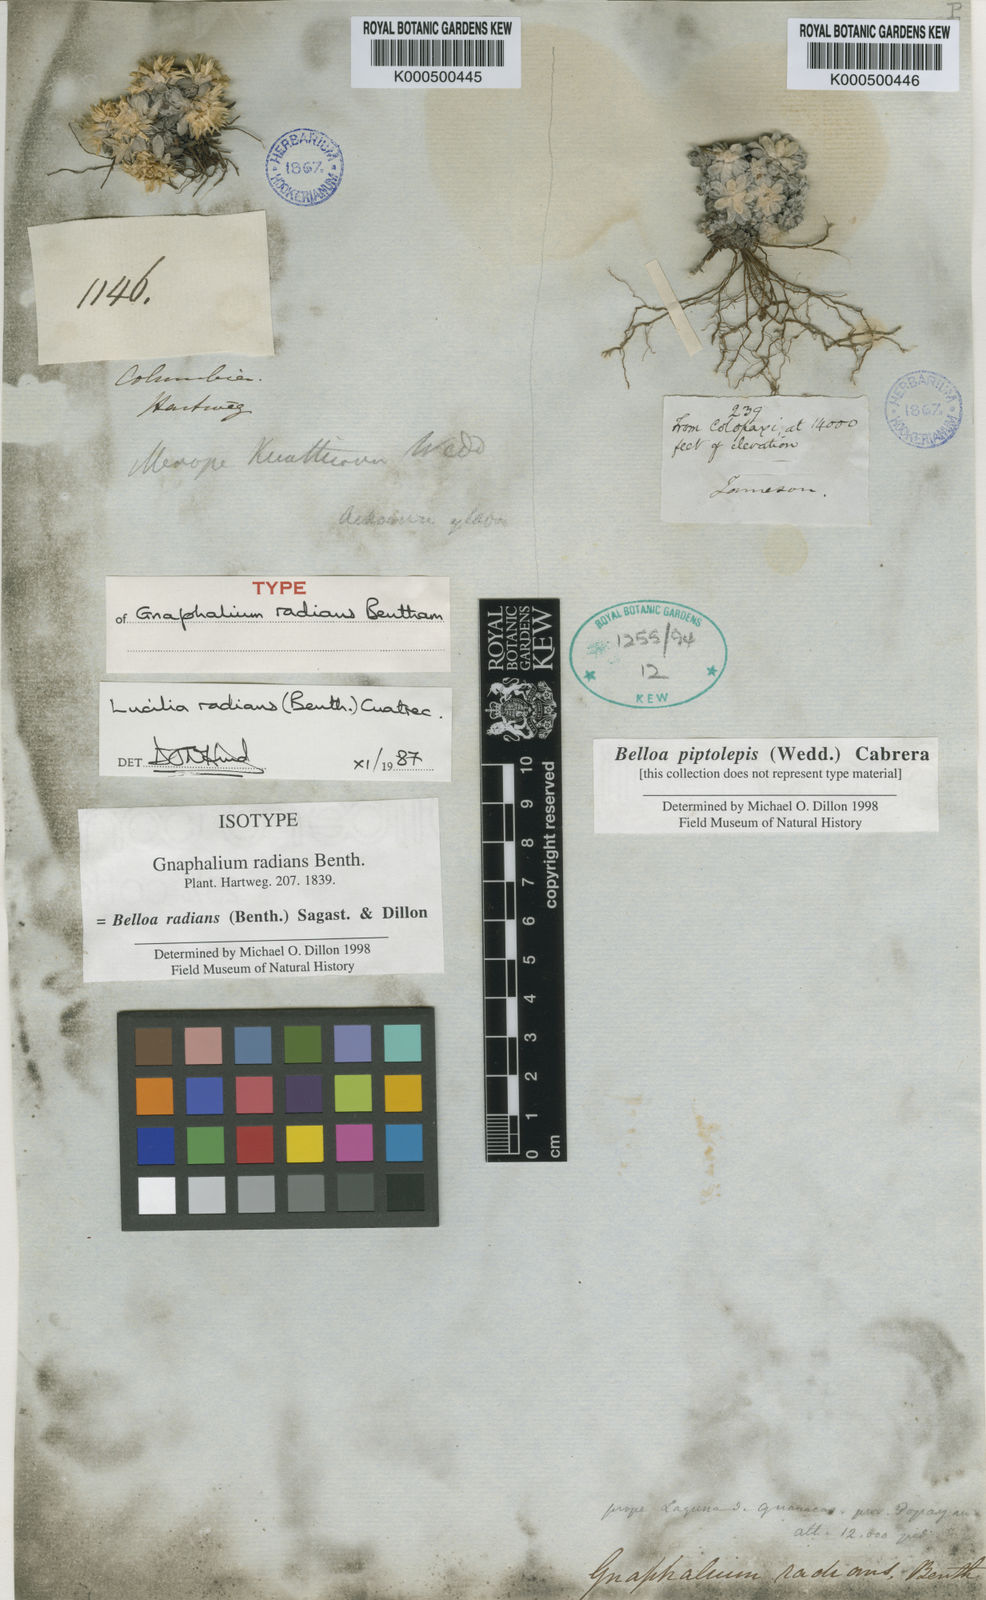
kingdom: Plantae
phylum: Tracheophyta
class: Magnoliopsida
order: Asterales
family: Asteraceae
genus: Belloa
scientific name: Belloa
